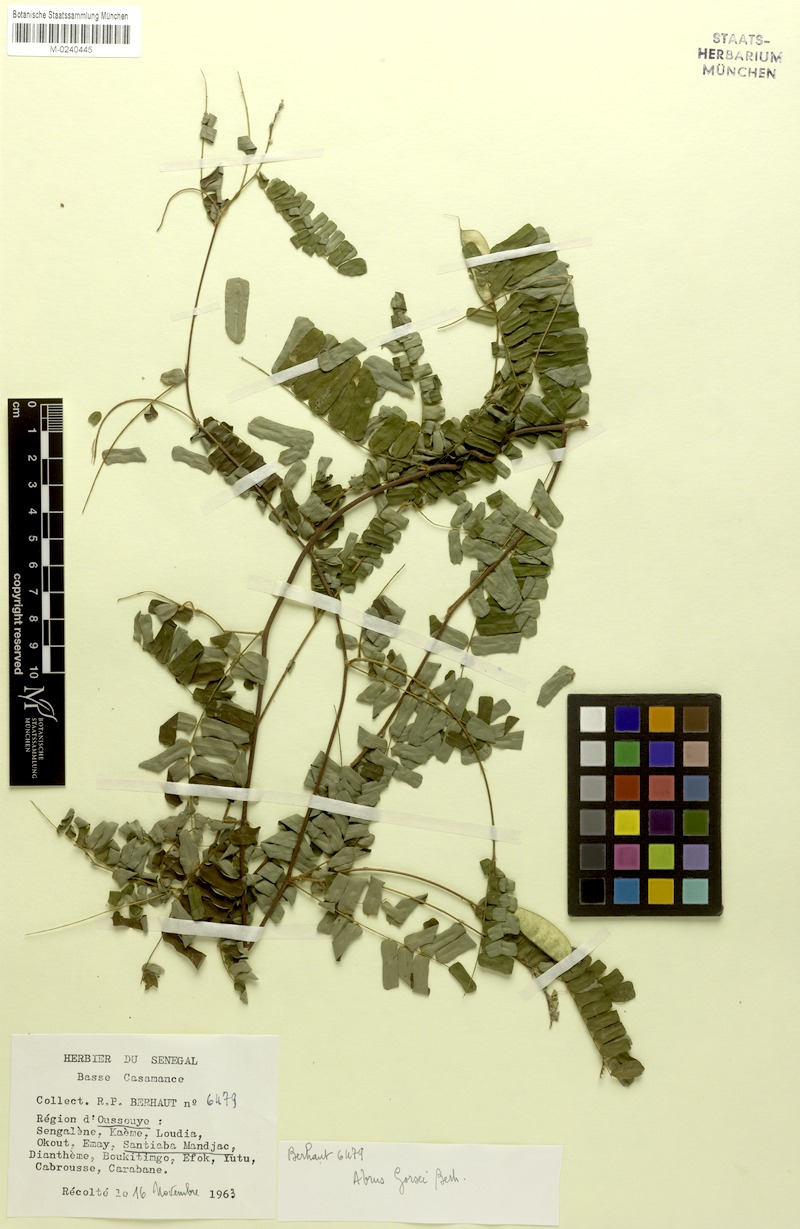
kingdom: Plantae
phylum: Tracheophyta
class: Magnoliopsida
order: Fabales
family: Fabaceae
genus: Abrus
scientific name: Abrus melanospermus
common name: Licorice-root
